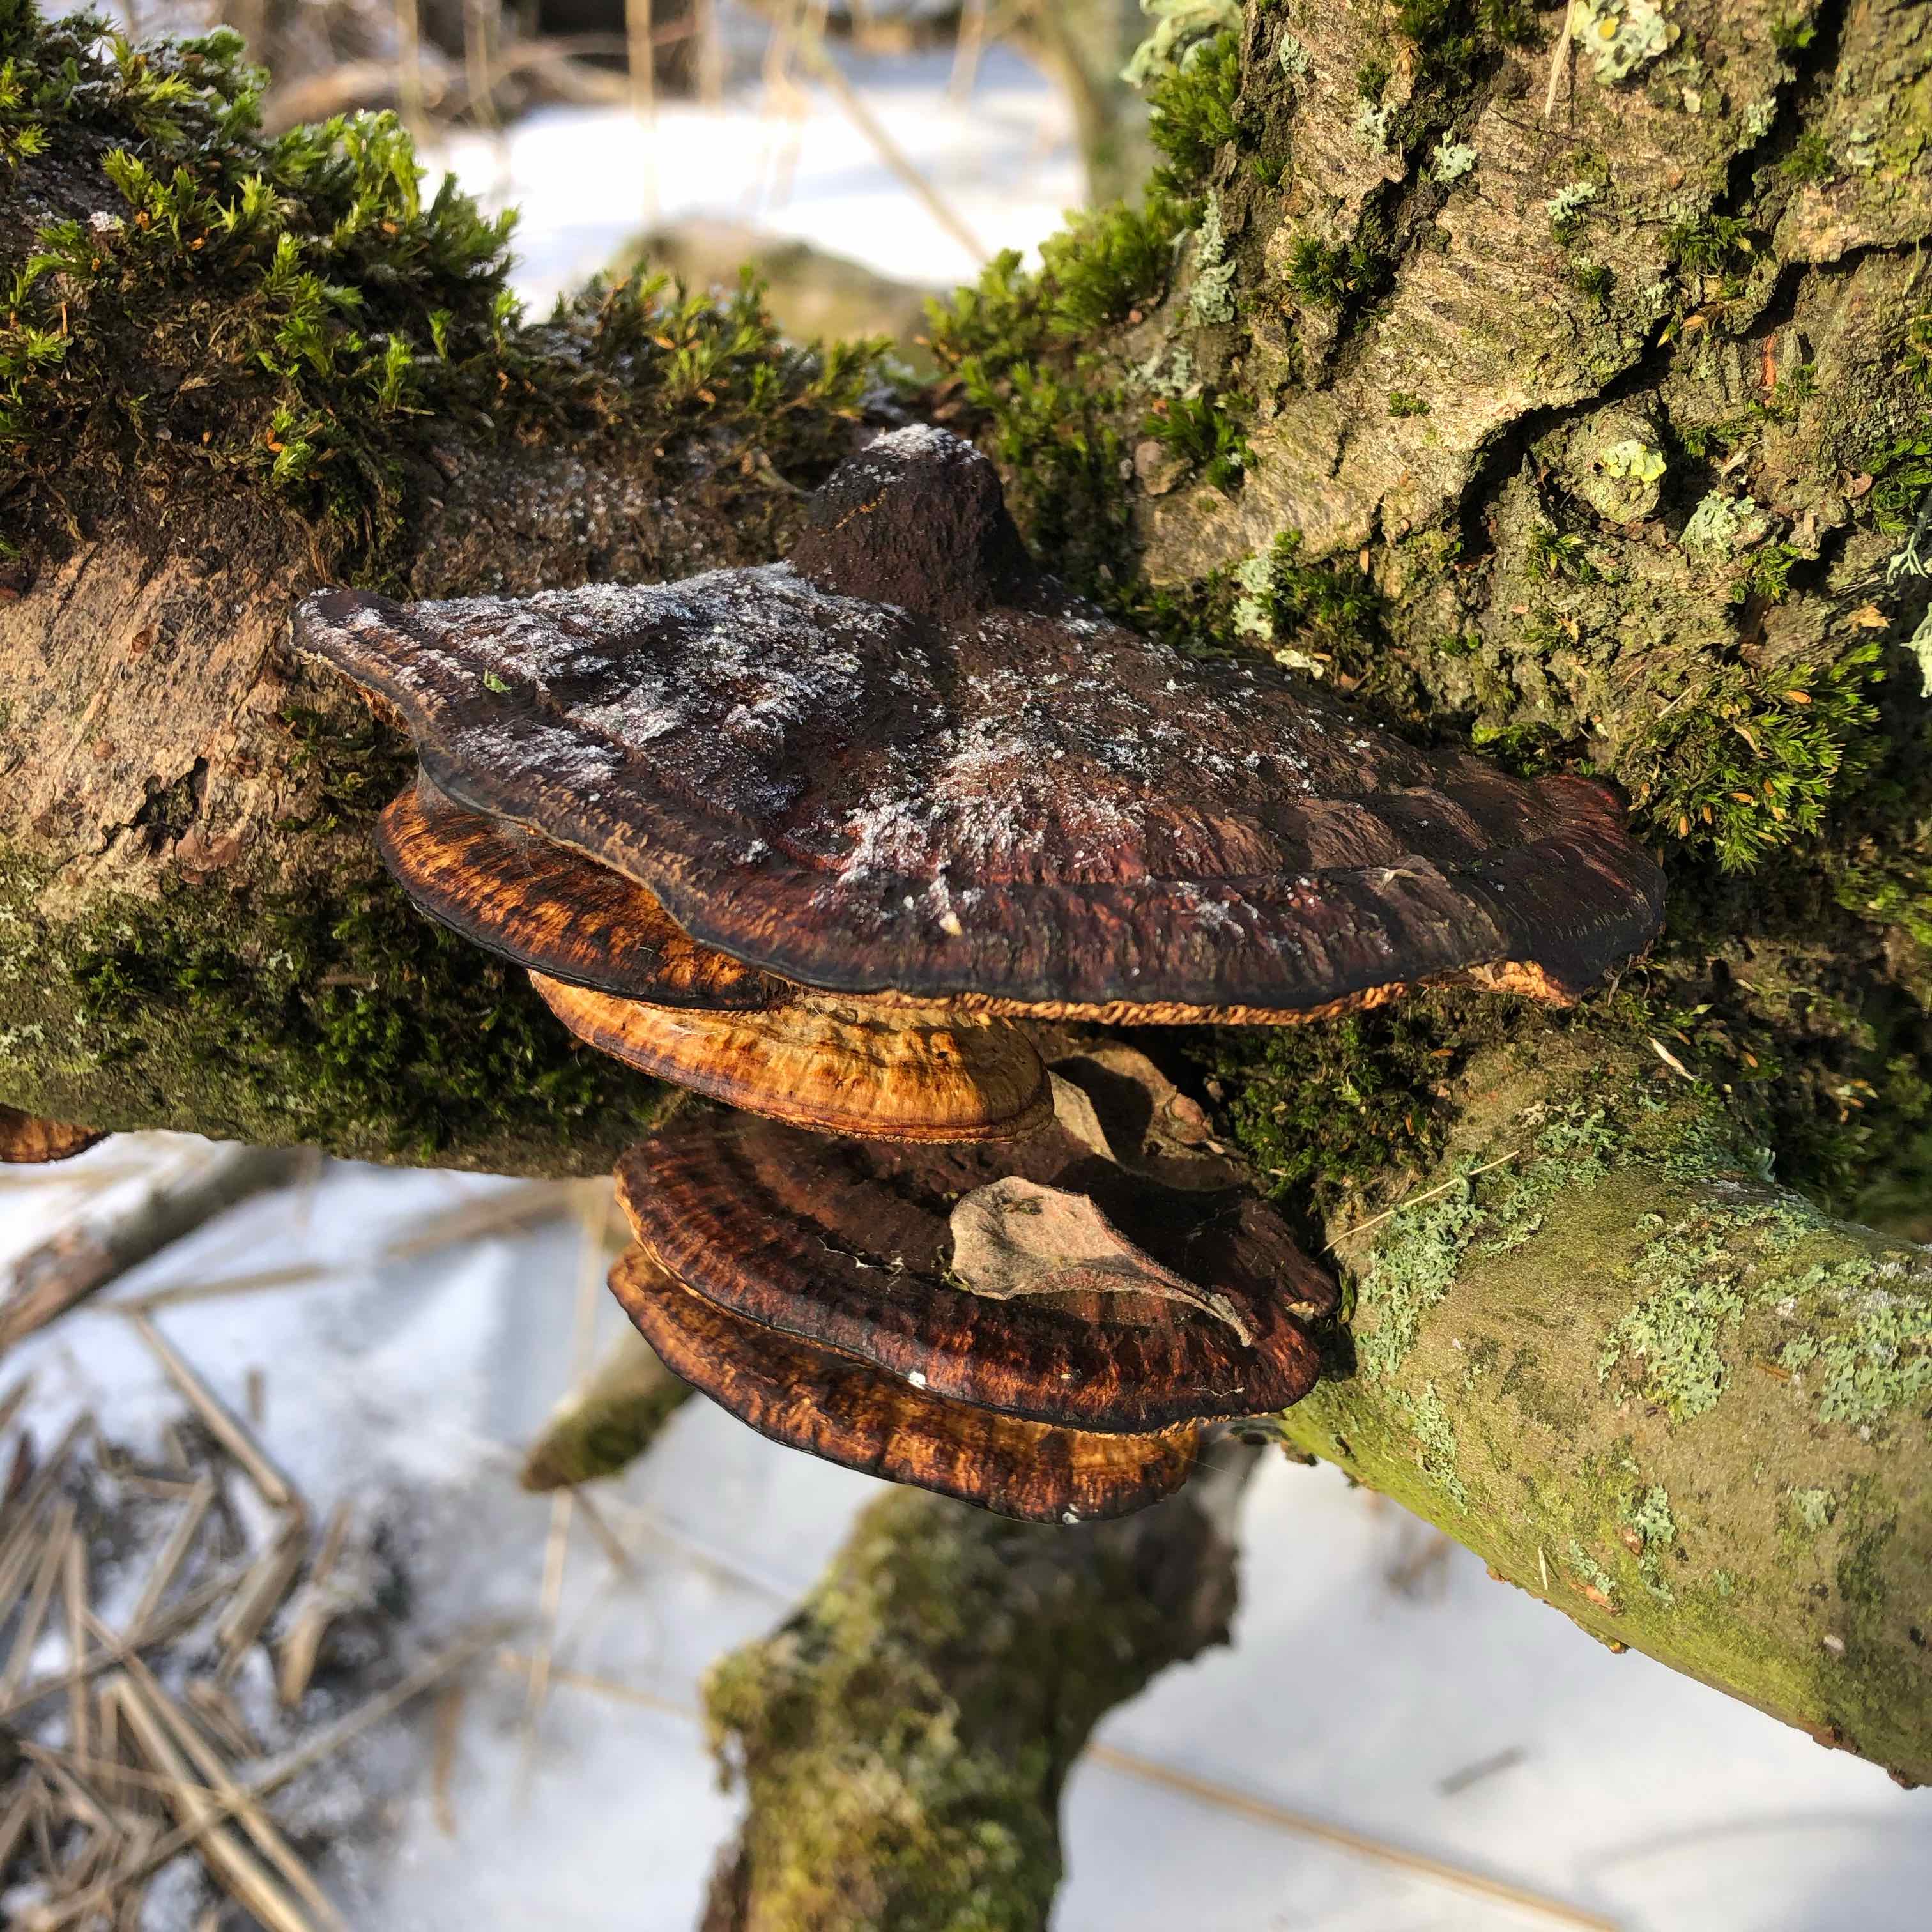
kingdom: Fungi
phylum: Basidiomycota
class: Agaricomycetes
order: Polyporales
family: Polyporaceae
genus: Daedaleopsis
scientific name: Daedaleopsis confragosa
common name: rødmende læderporesvamp
